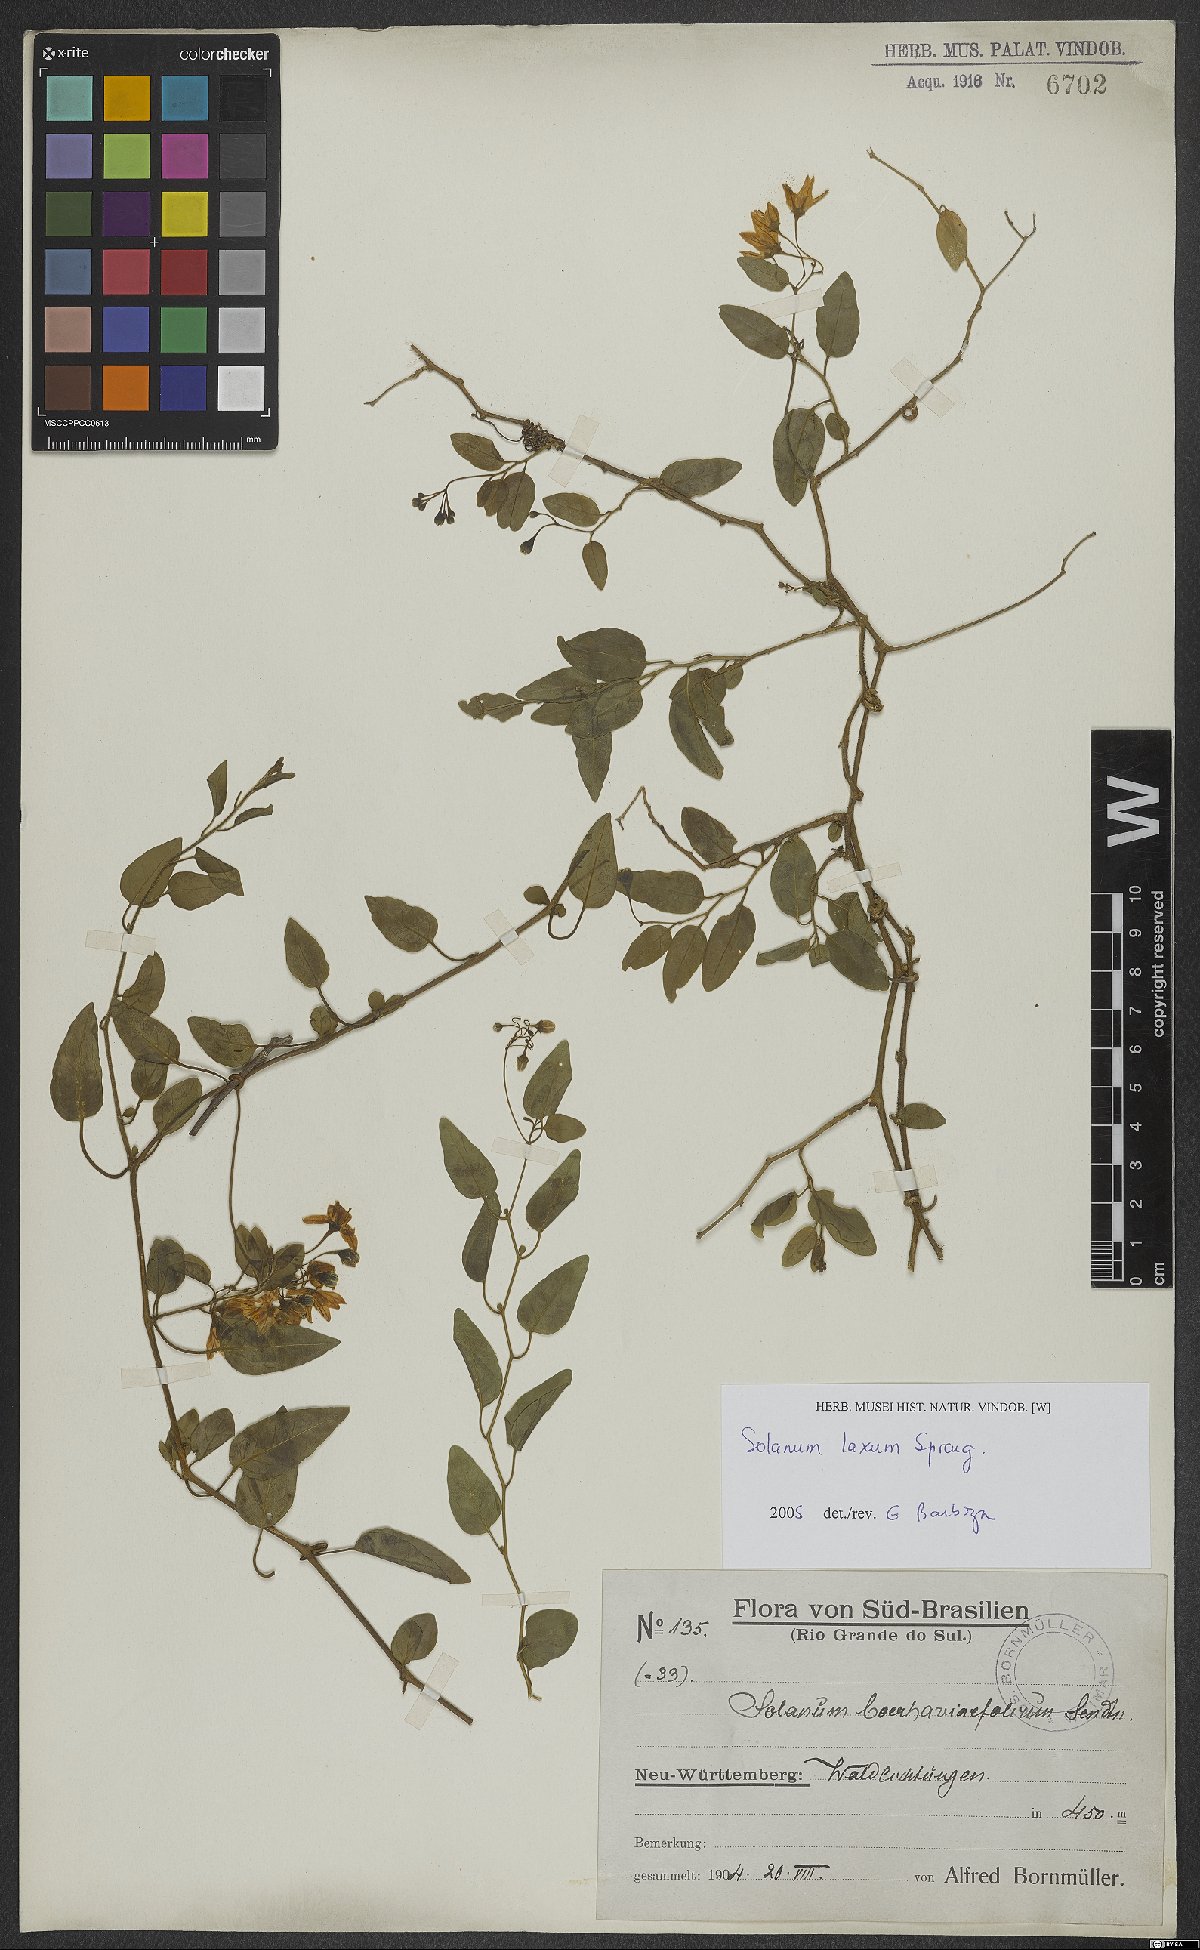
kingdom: Plantae
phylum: Tracheophyta
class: Magnoliopsida
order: Solanales
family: Solanaceae
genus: Solanum
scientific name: Solanum laxum
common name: Nightshade
